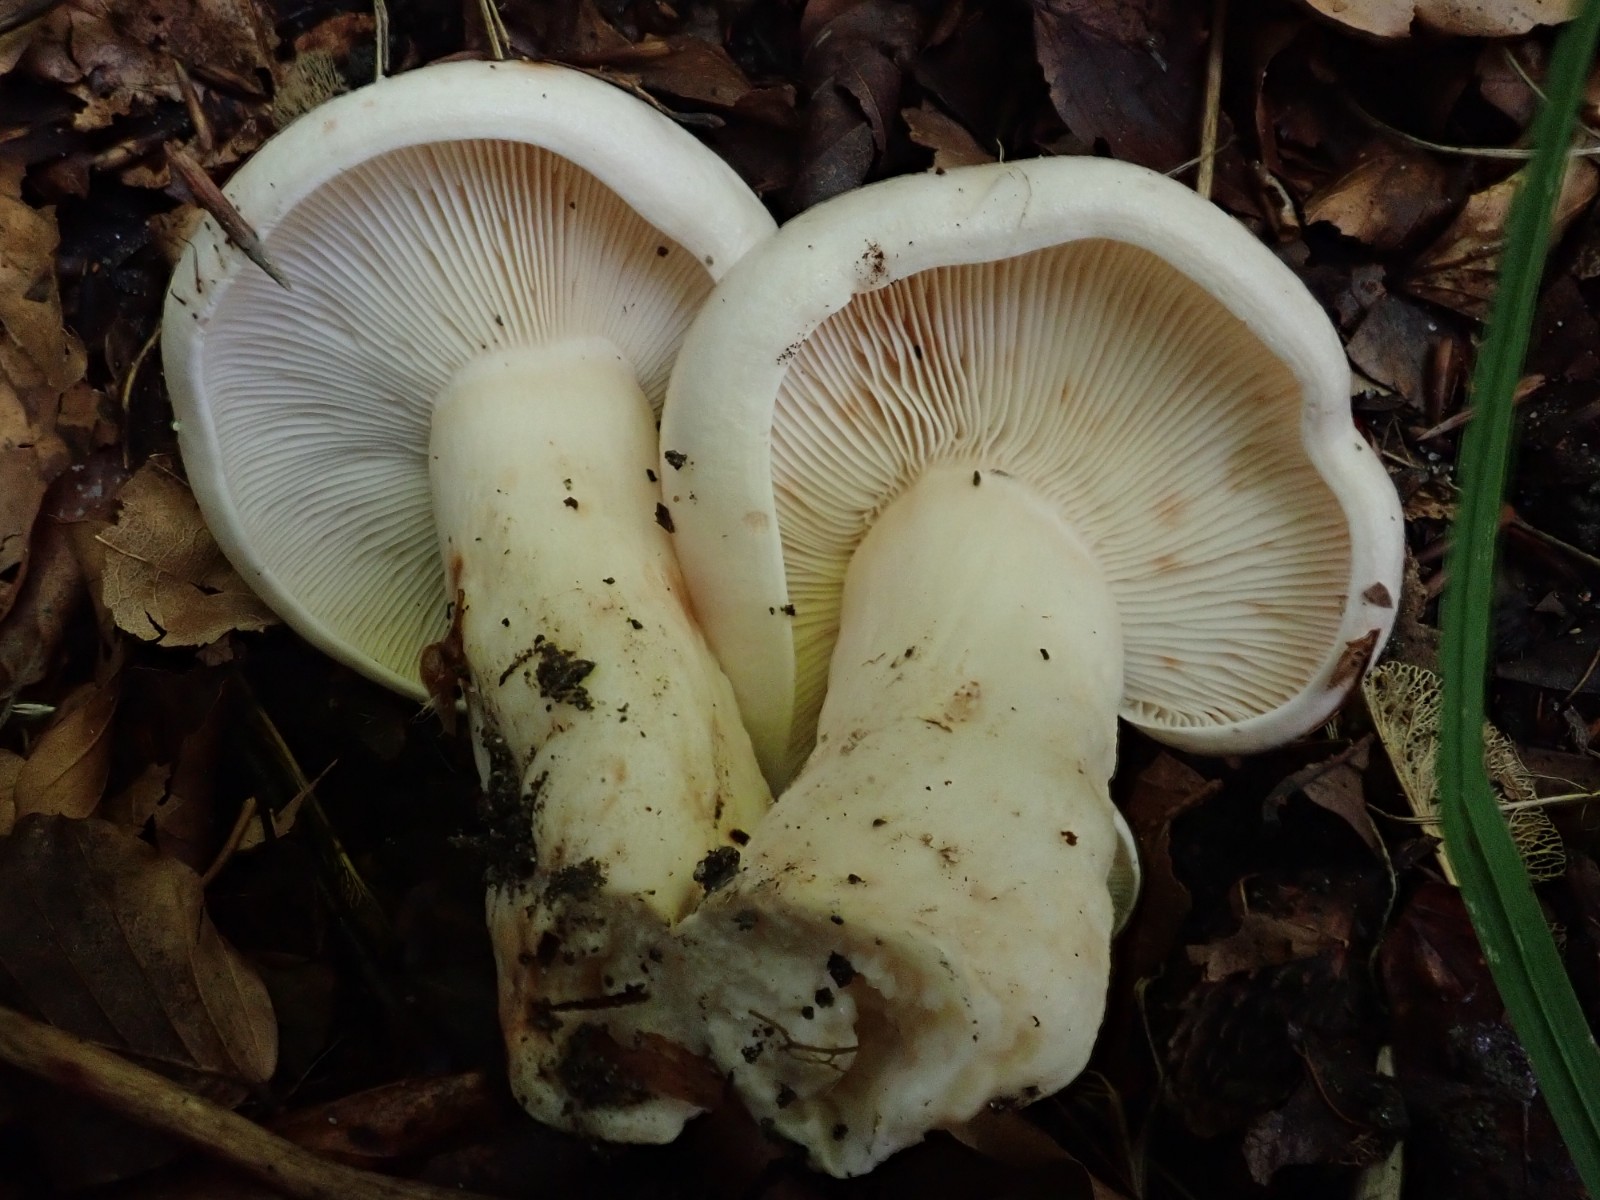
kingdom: Fungi
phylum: Basidiomycota
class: Agaricomycetes
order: Russulales
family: Russulaceae
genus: Lactarius
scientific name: Lactarius pallidus
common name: bleg mælkehat
